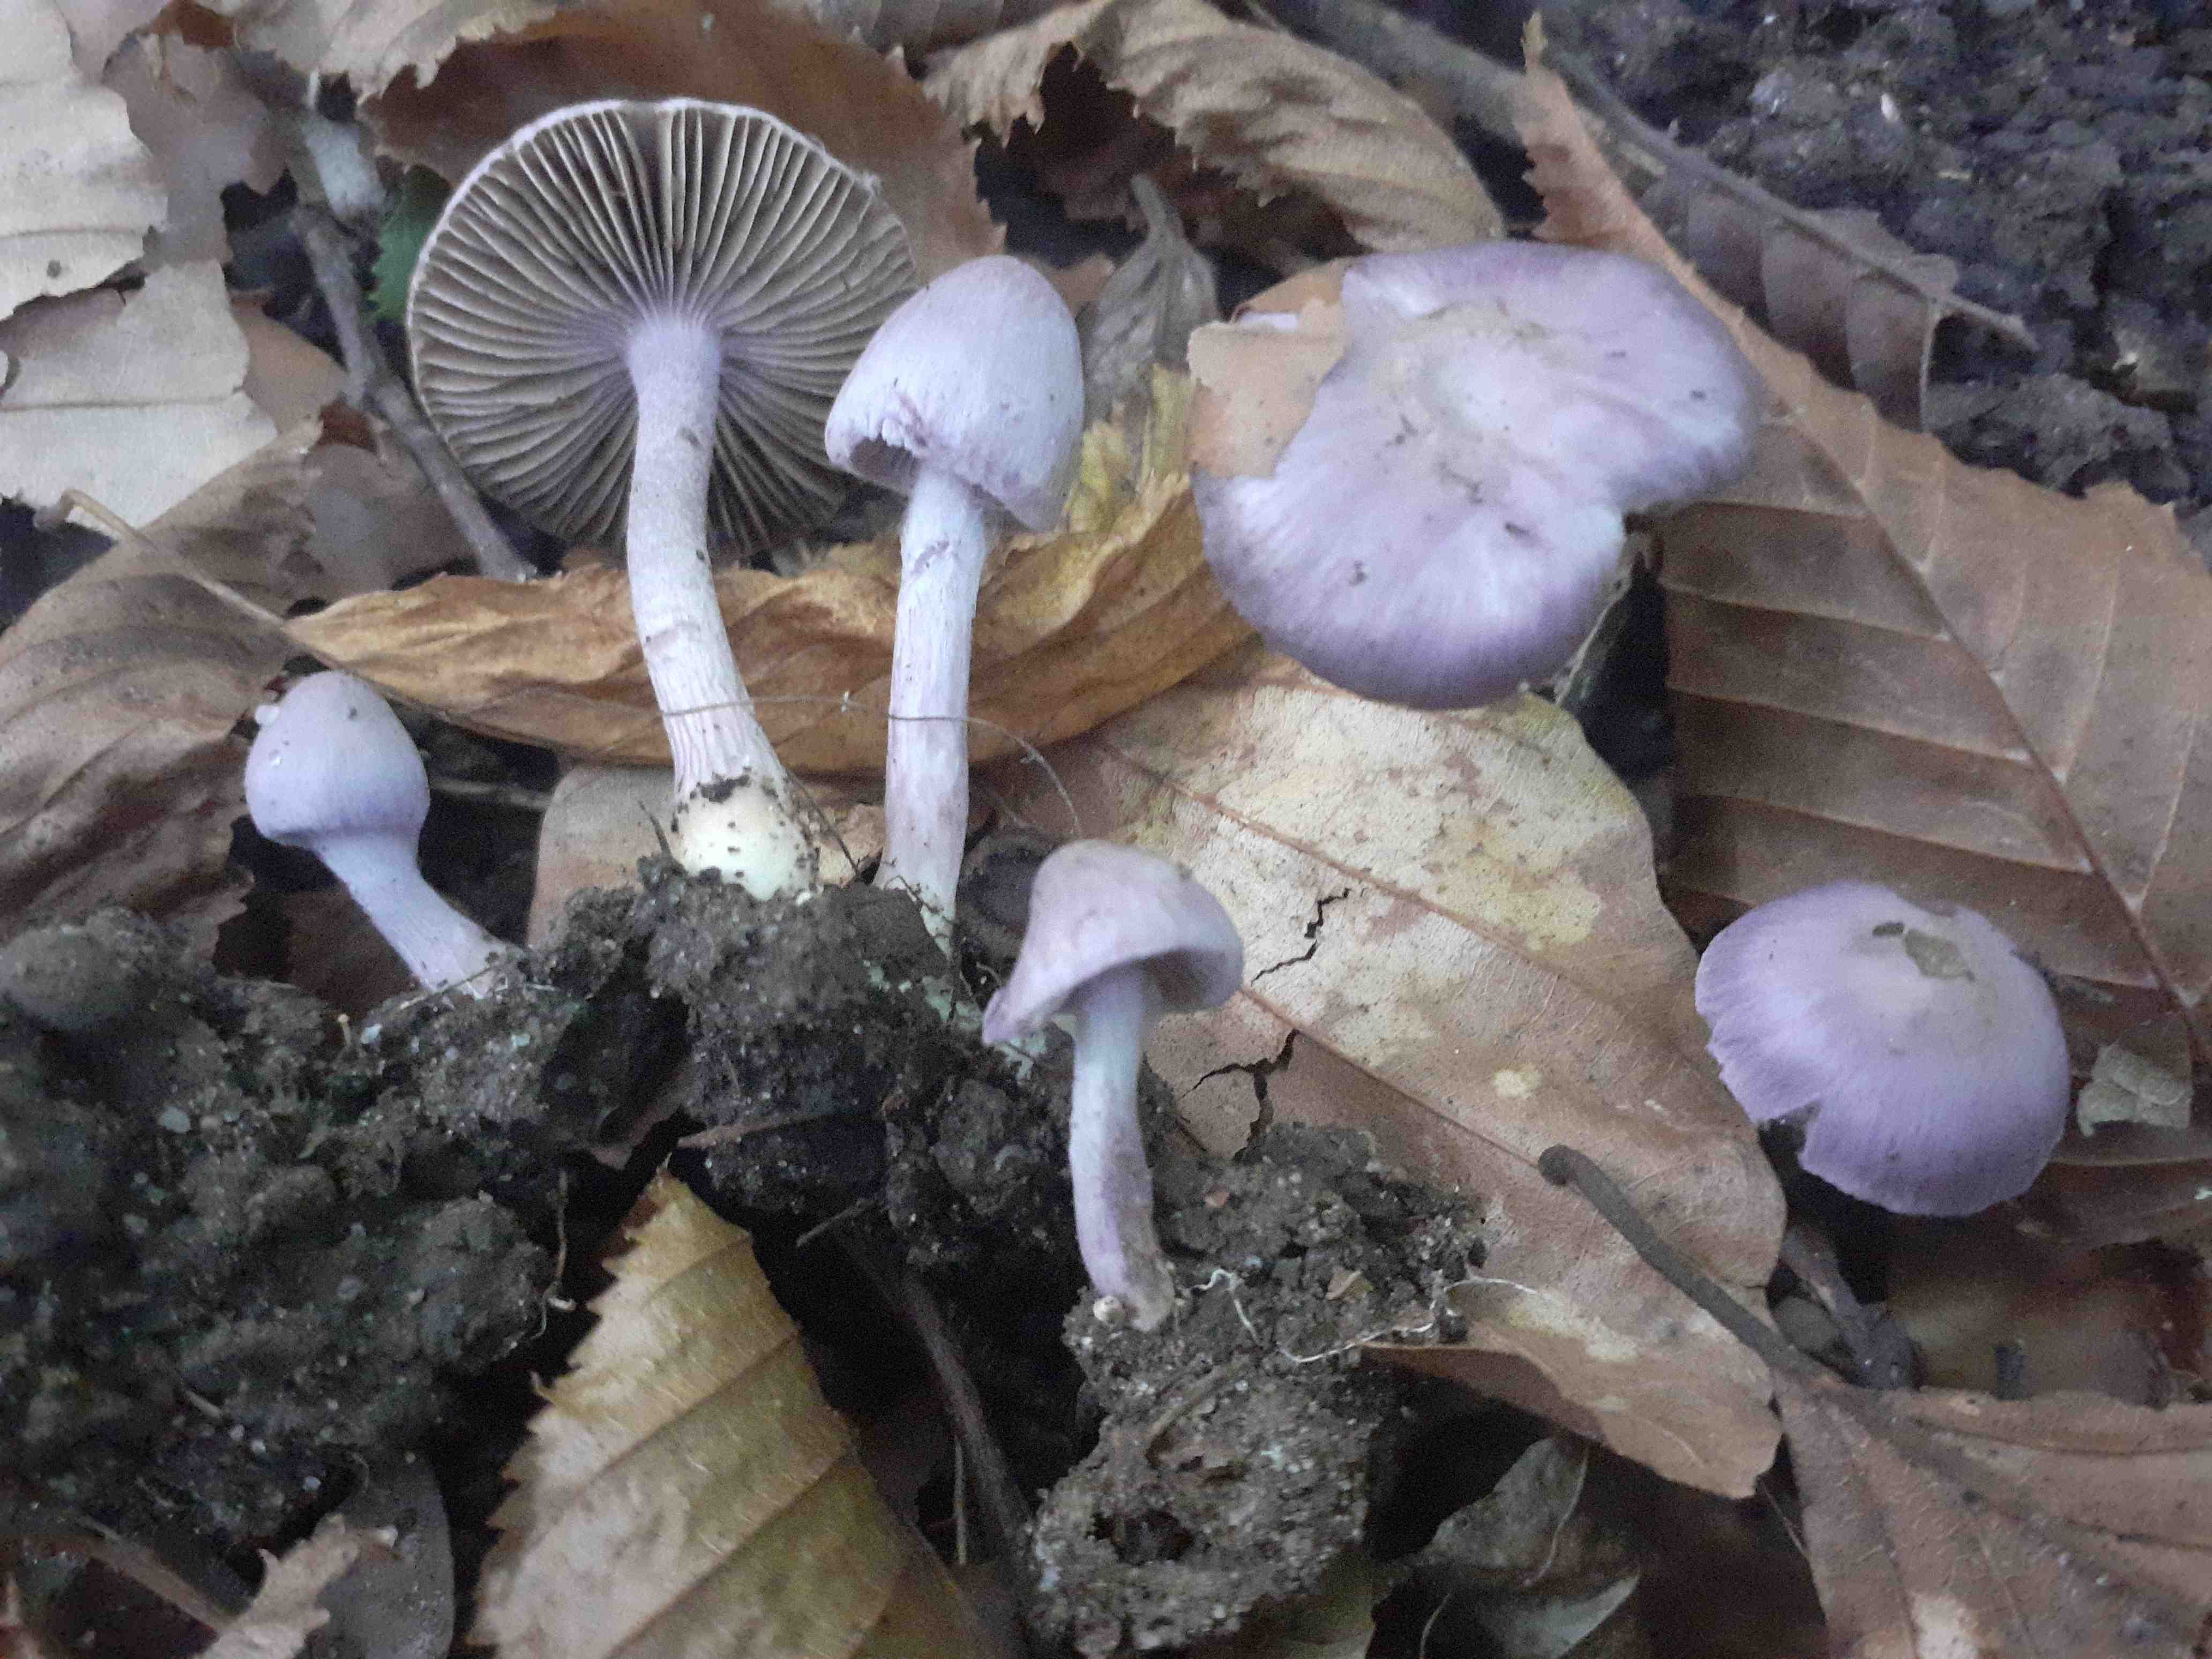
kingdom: Fungi
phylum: Basidiomycota
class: Agaricomycetes
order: Agaricales
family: Inocybaceae
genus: Inocybe
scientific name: Inocybe geophylla
